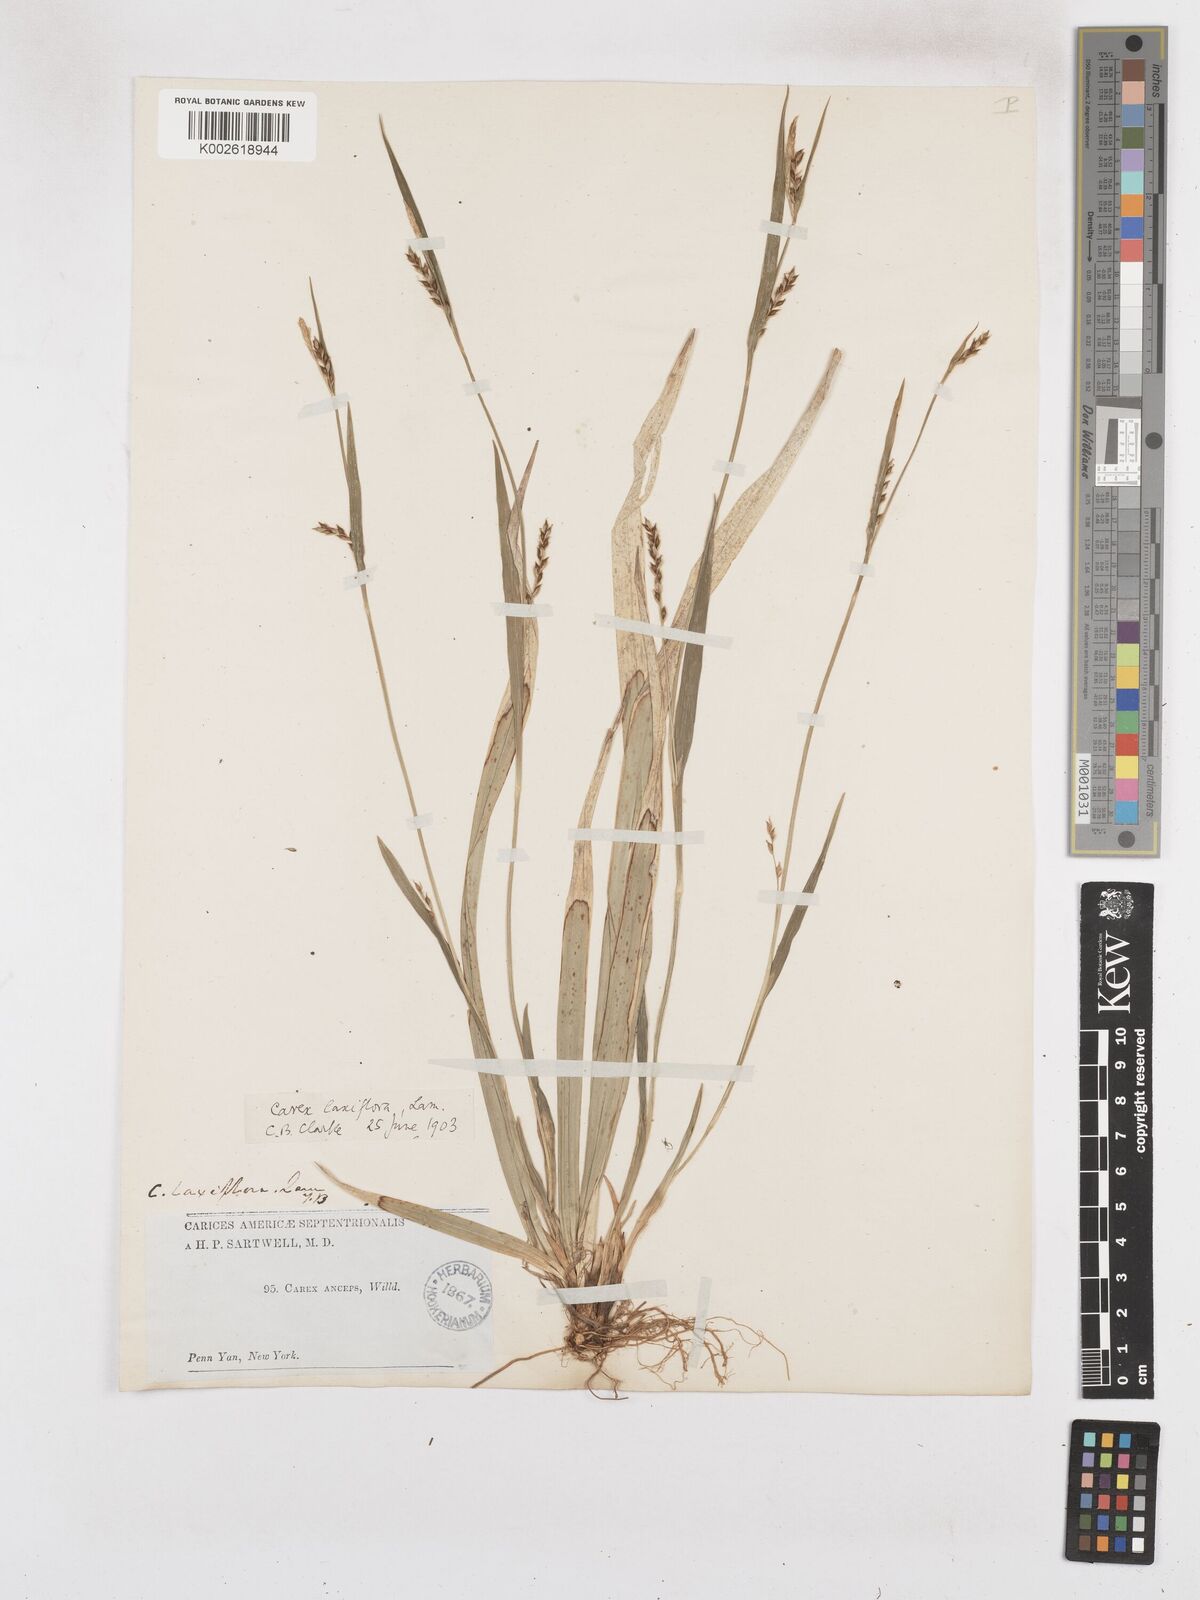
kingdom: Plantae
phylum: Tracheophyta
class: Liliopsida
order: Poales
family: Cyperaceae
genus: Carex
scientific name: Carex laxiflora
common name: Beech wood sedge
